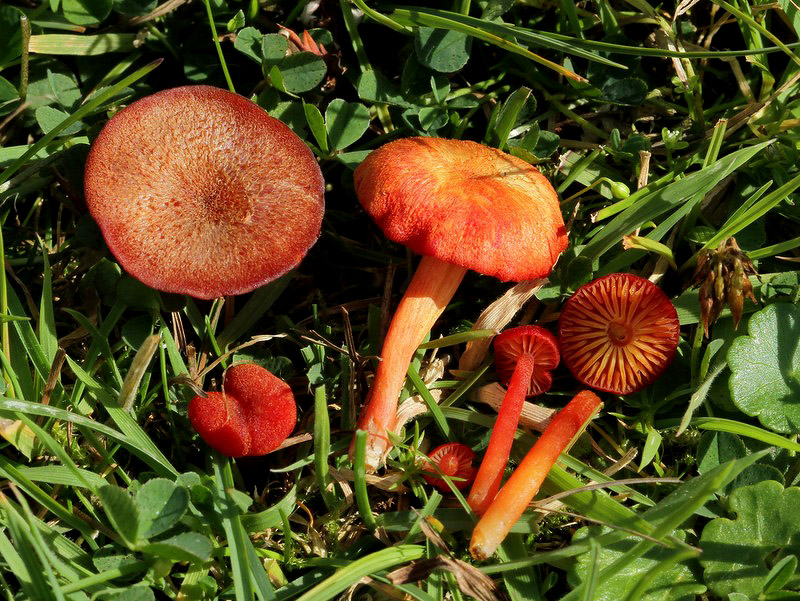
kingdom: Fungi
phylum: Basidiomycota
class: Agaricomycetes
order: Agaricales
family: Hygrophoraceae
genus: Hygrocybe
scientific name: Hygrocybe helobia
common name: hvidløgs-vokshat
